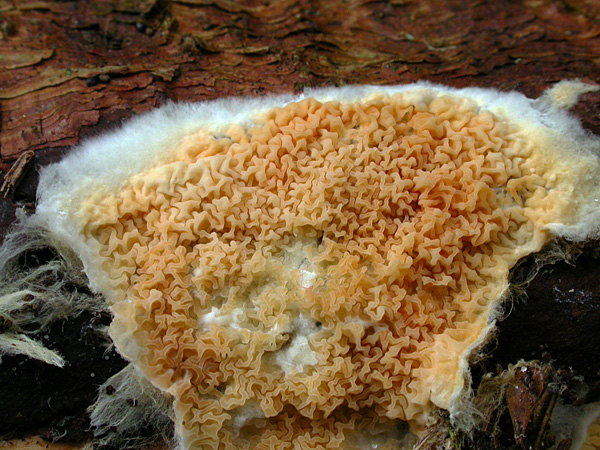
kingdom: Fungi
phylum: Basidiomycota
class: Agaricomycetes
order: Boletales
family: Hygrophoropsidaceae
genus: Leucogyrophana
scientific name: Leucogyrophana mollusca
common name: blød hussvamp
